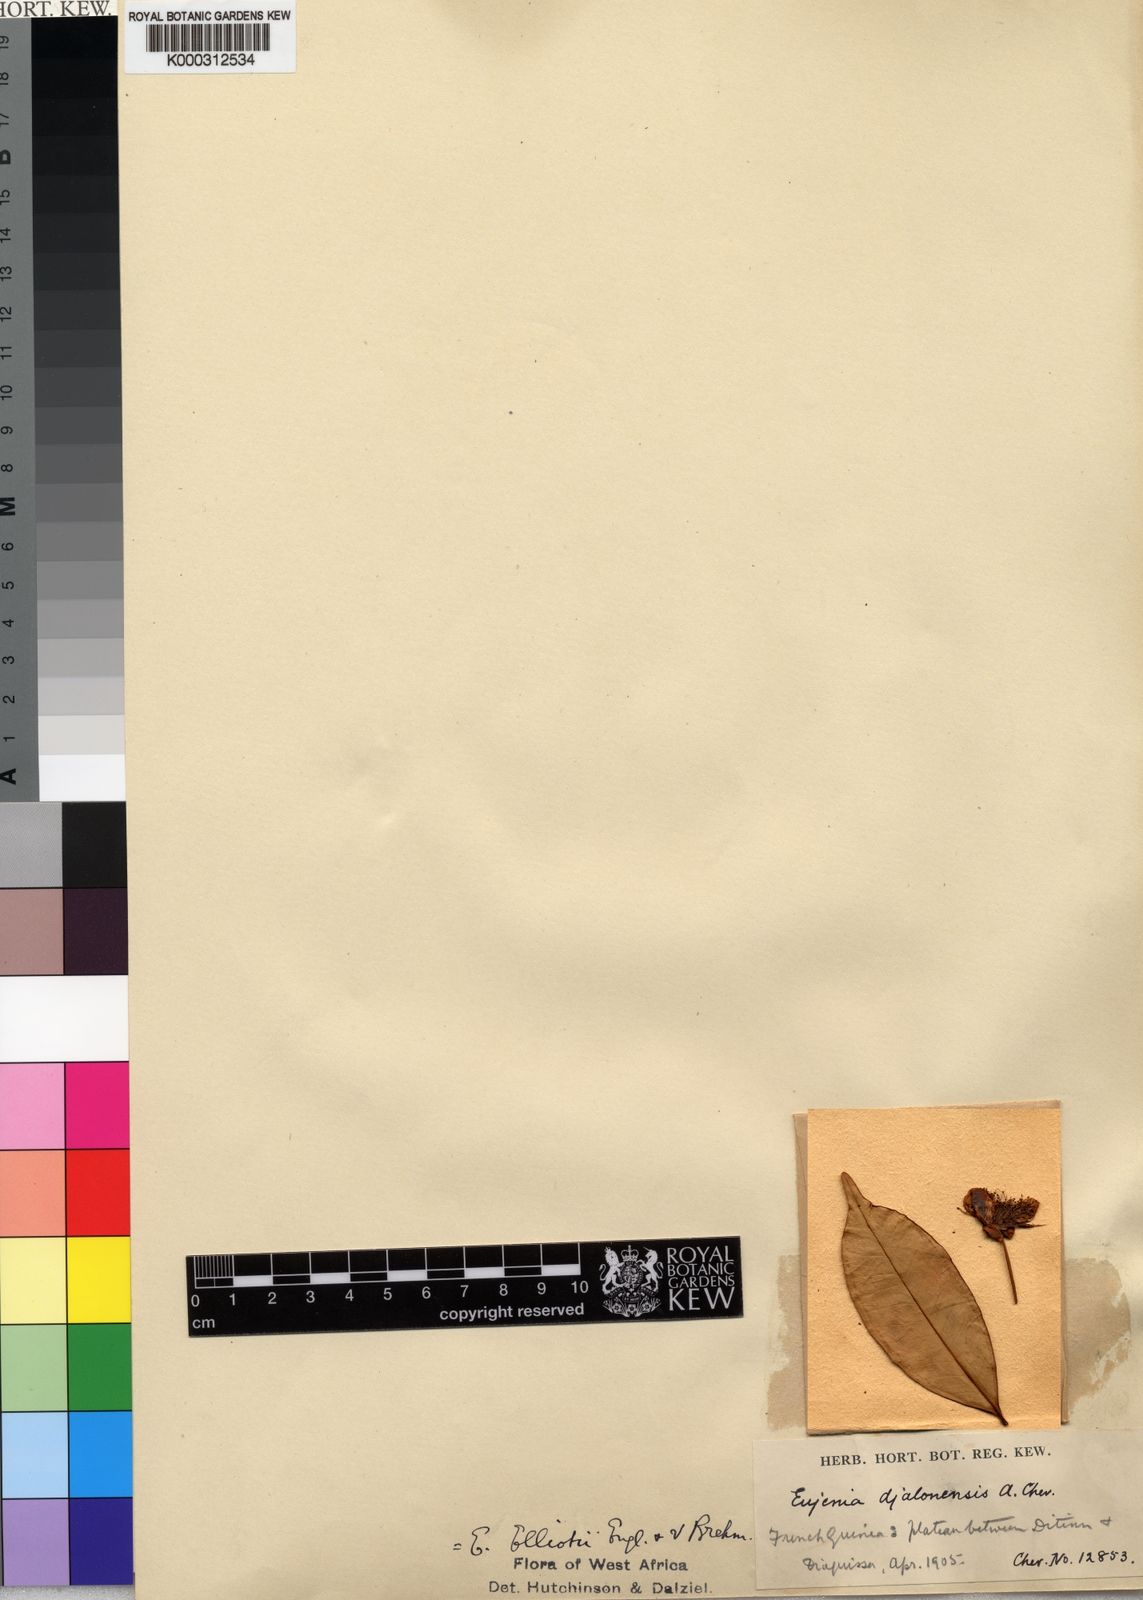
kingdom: Plantae
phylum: Tracheophyta
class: Magnoliopsida
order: Myrtales
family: Myrtaceae
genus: Eugenia
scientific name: Eugenia elliotii
